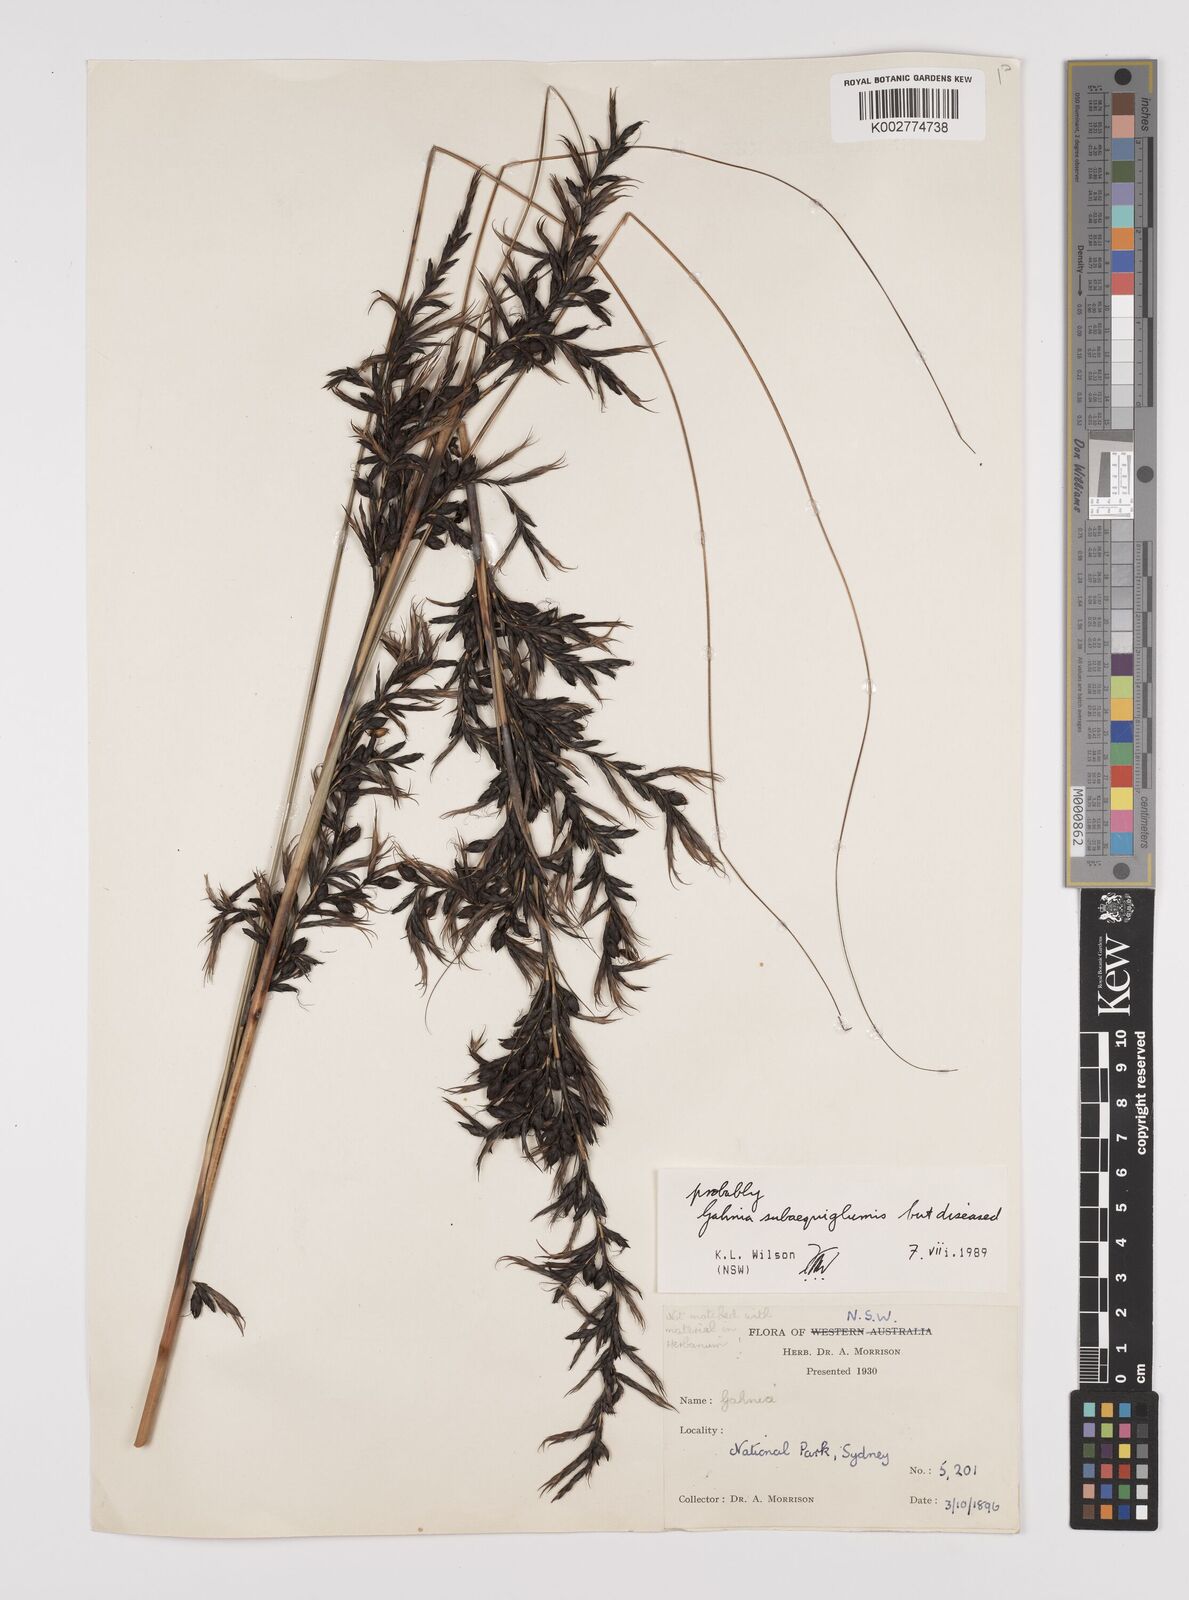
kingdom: Plantae
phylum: Tracheophyta
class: Liliopsida
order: Poales
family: Cyperaceae
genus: Gahnia
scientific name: Gahnia subaequiglumis
